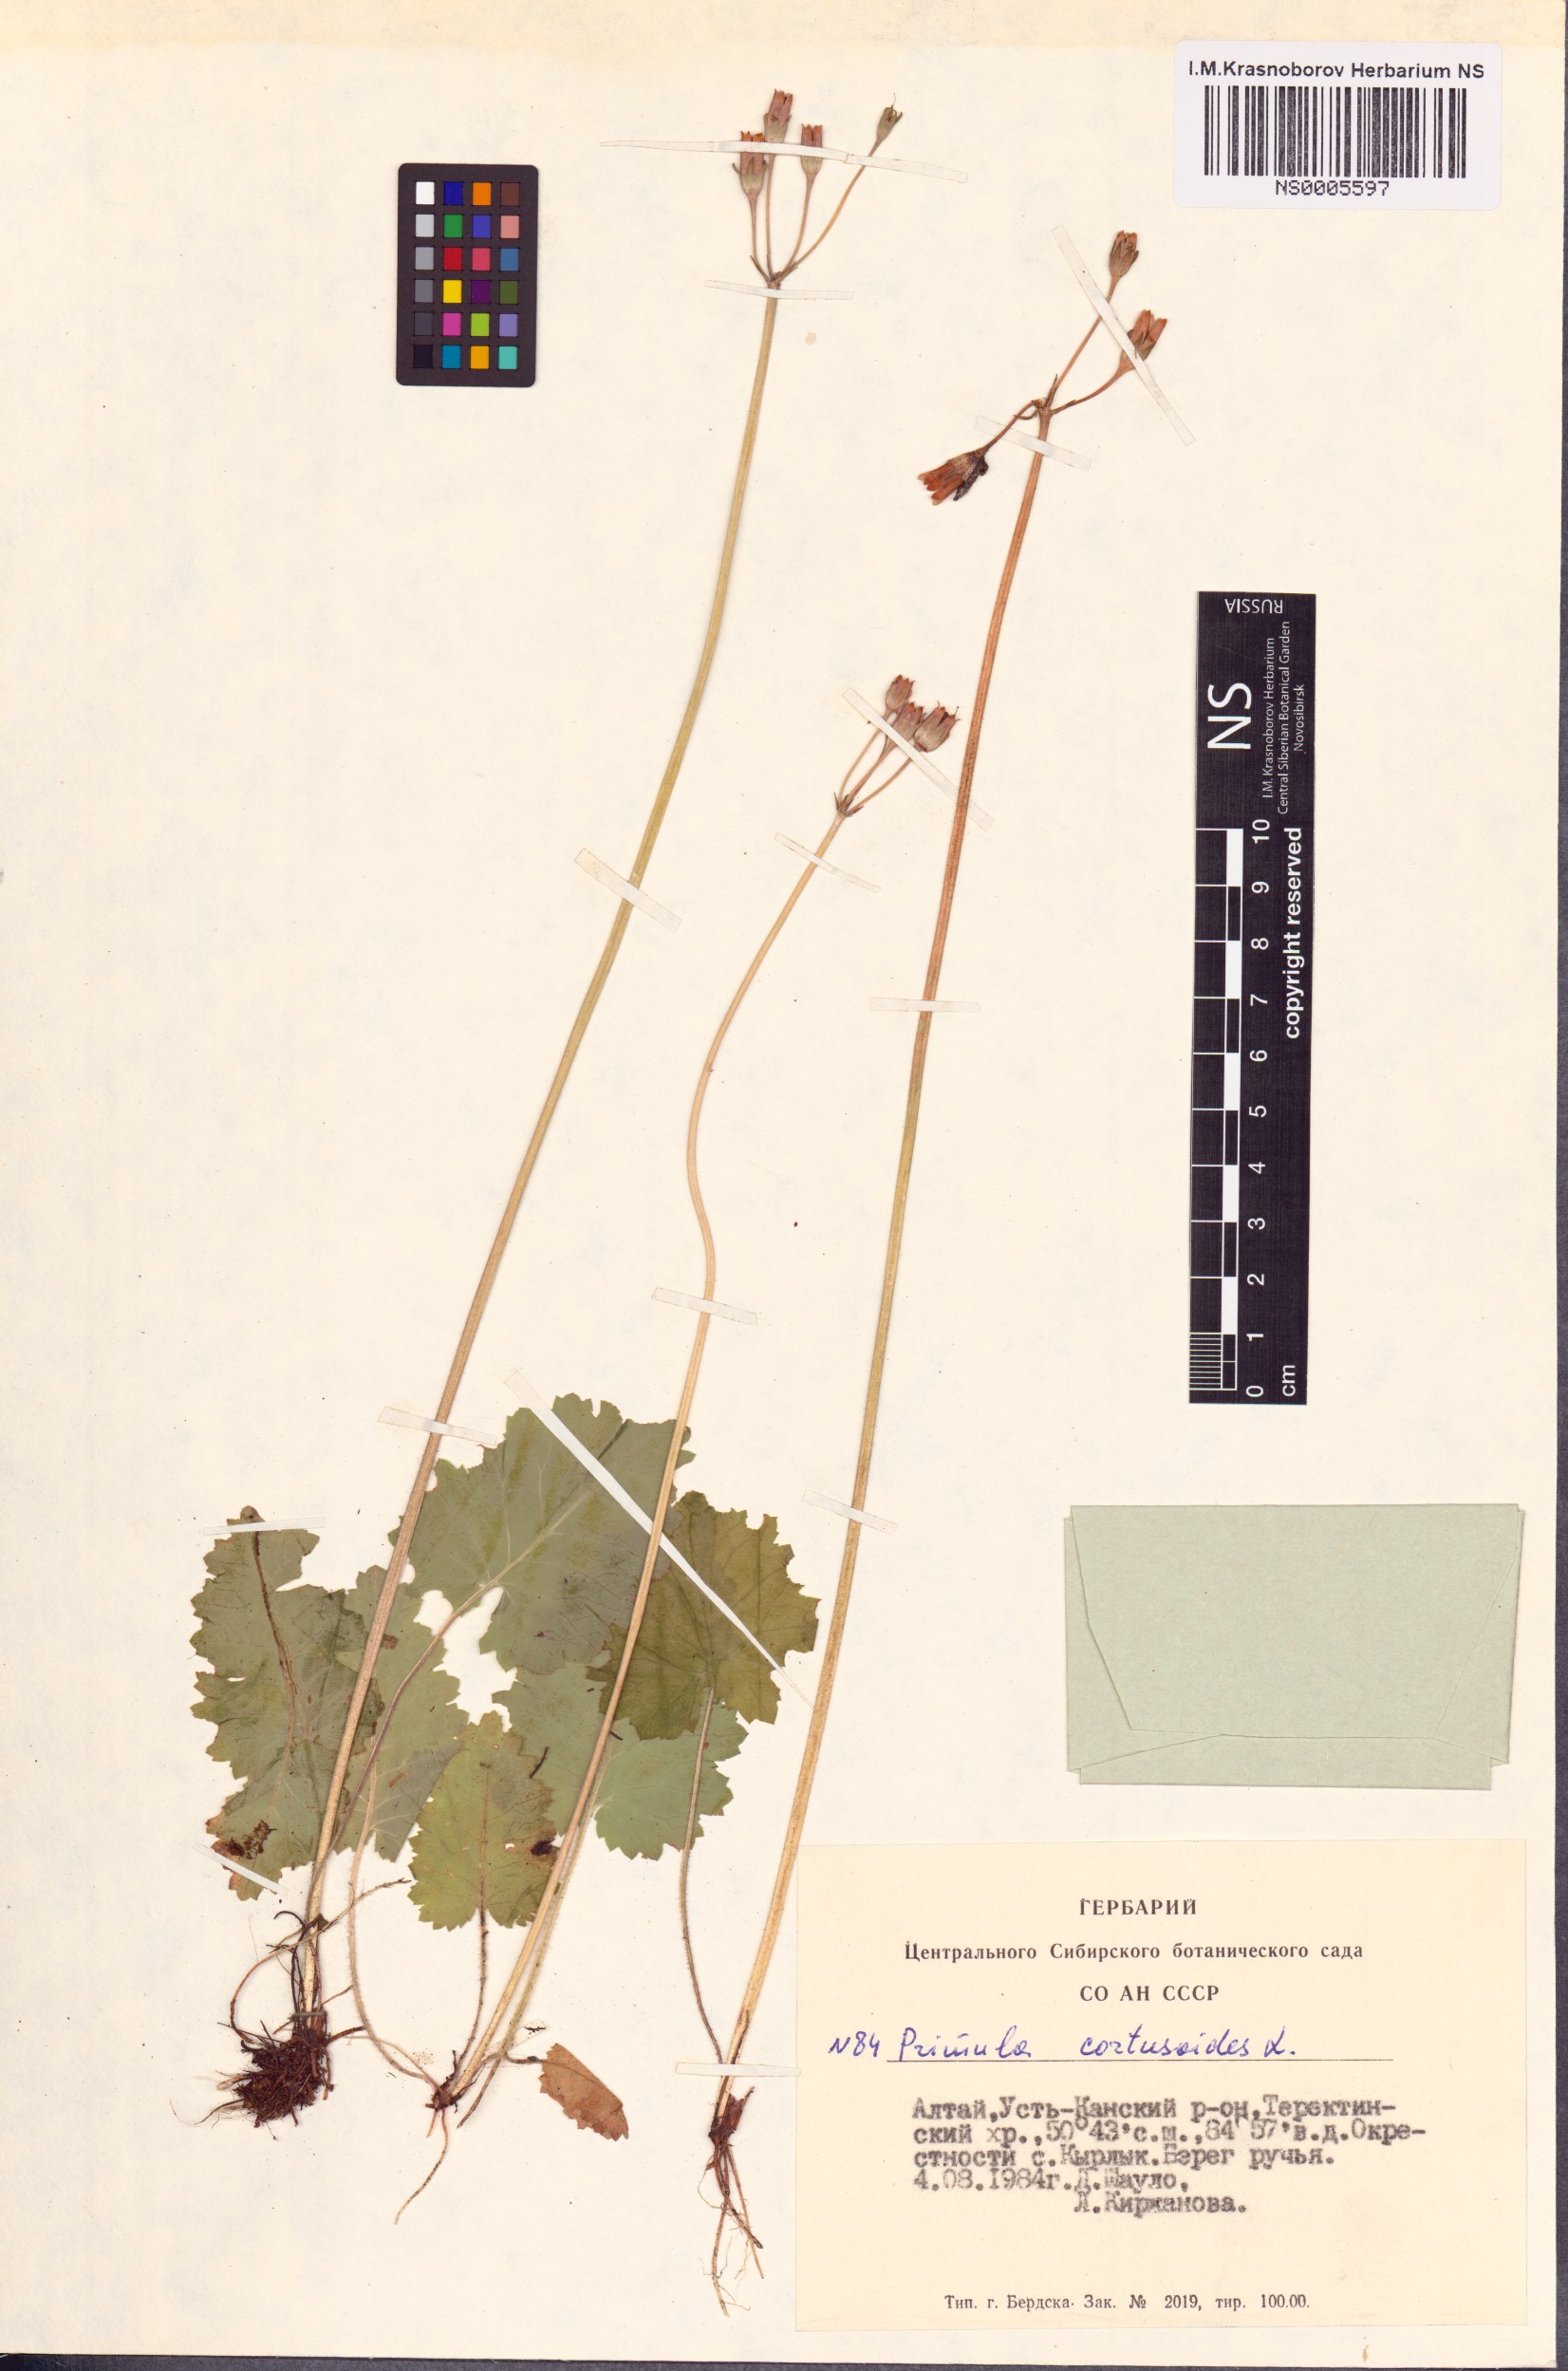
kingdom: Plantae
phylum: Tracheophyta
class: Magnoliopsida
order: Ericales
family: Primulaceae
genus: Primula
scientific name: Primula cortusoides
